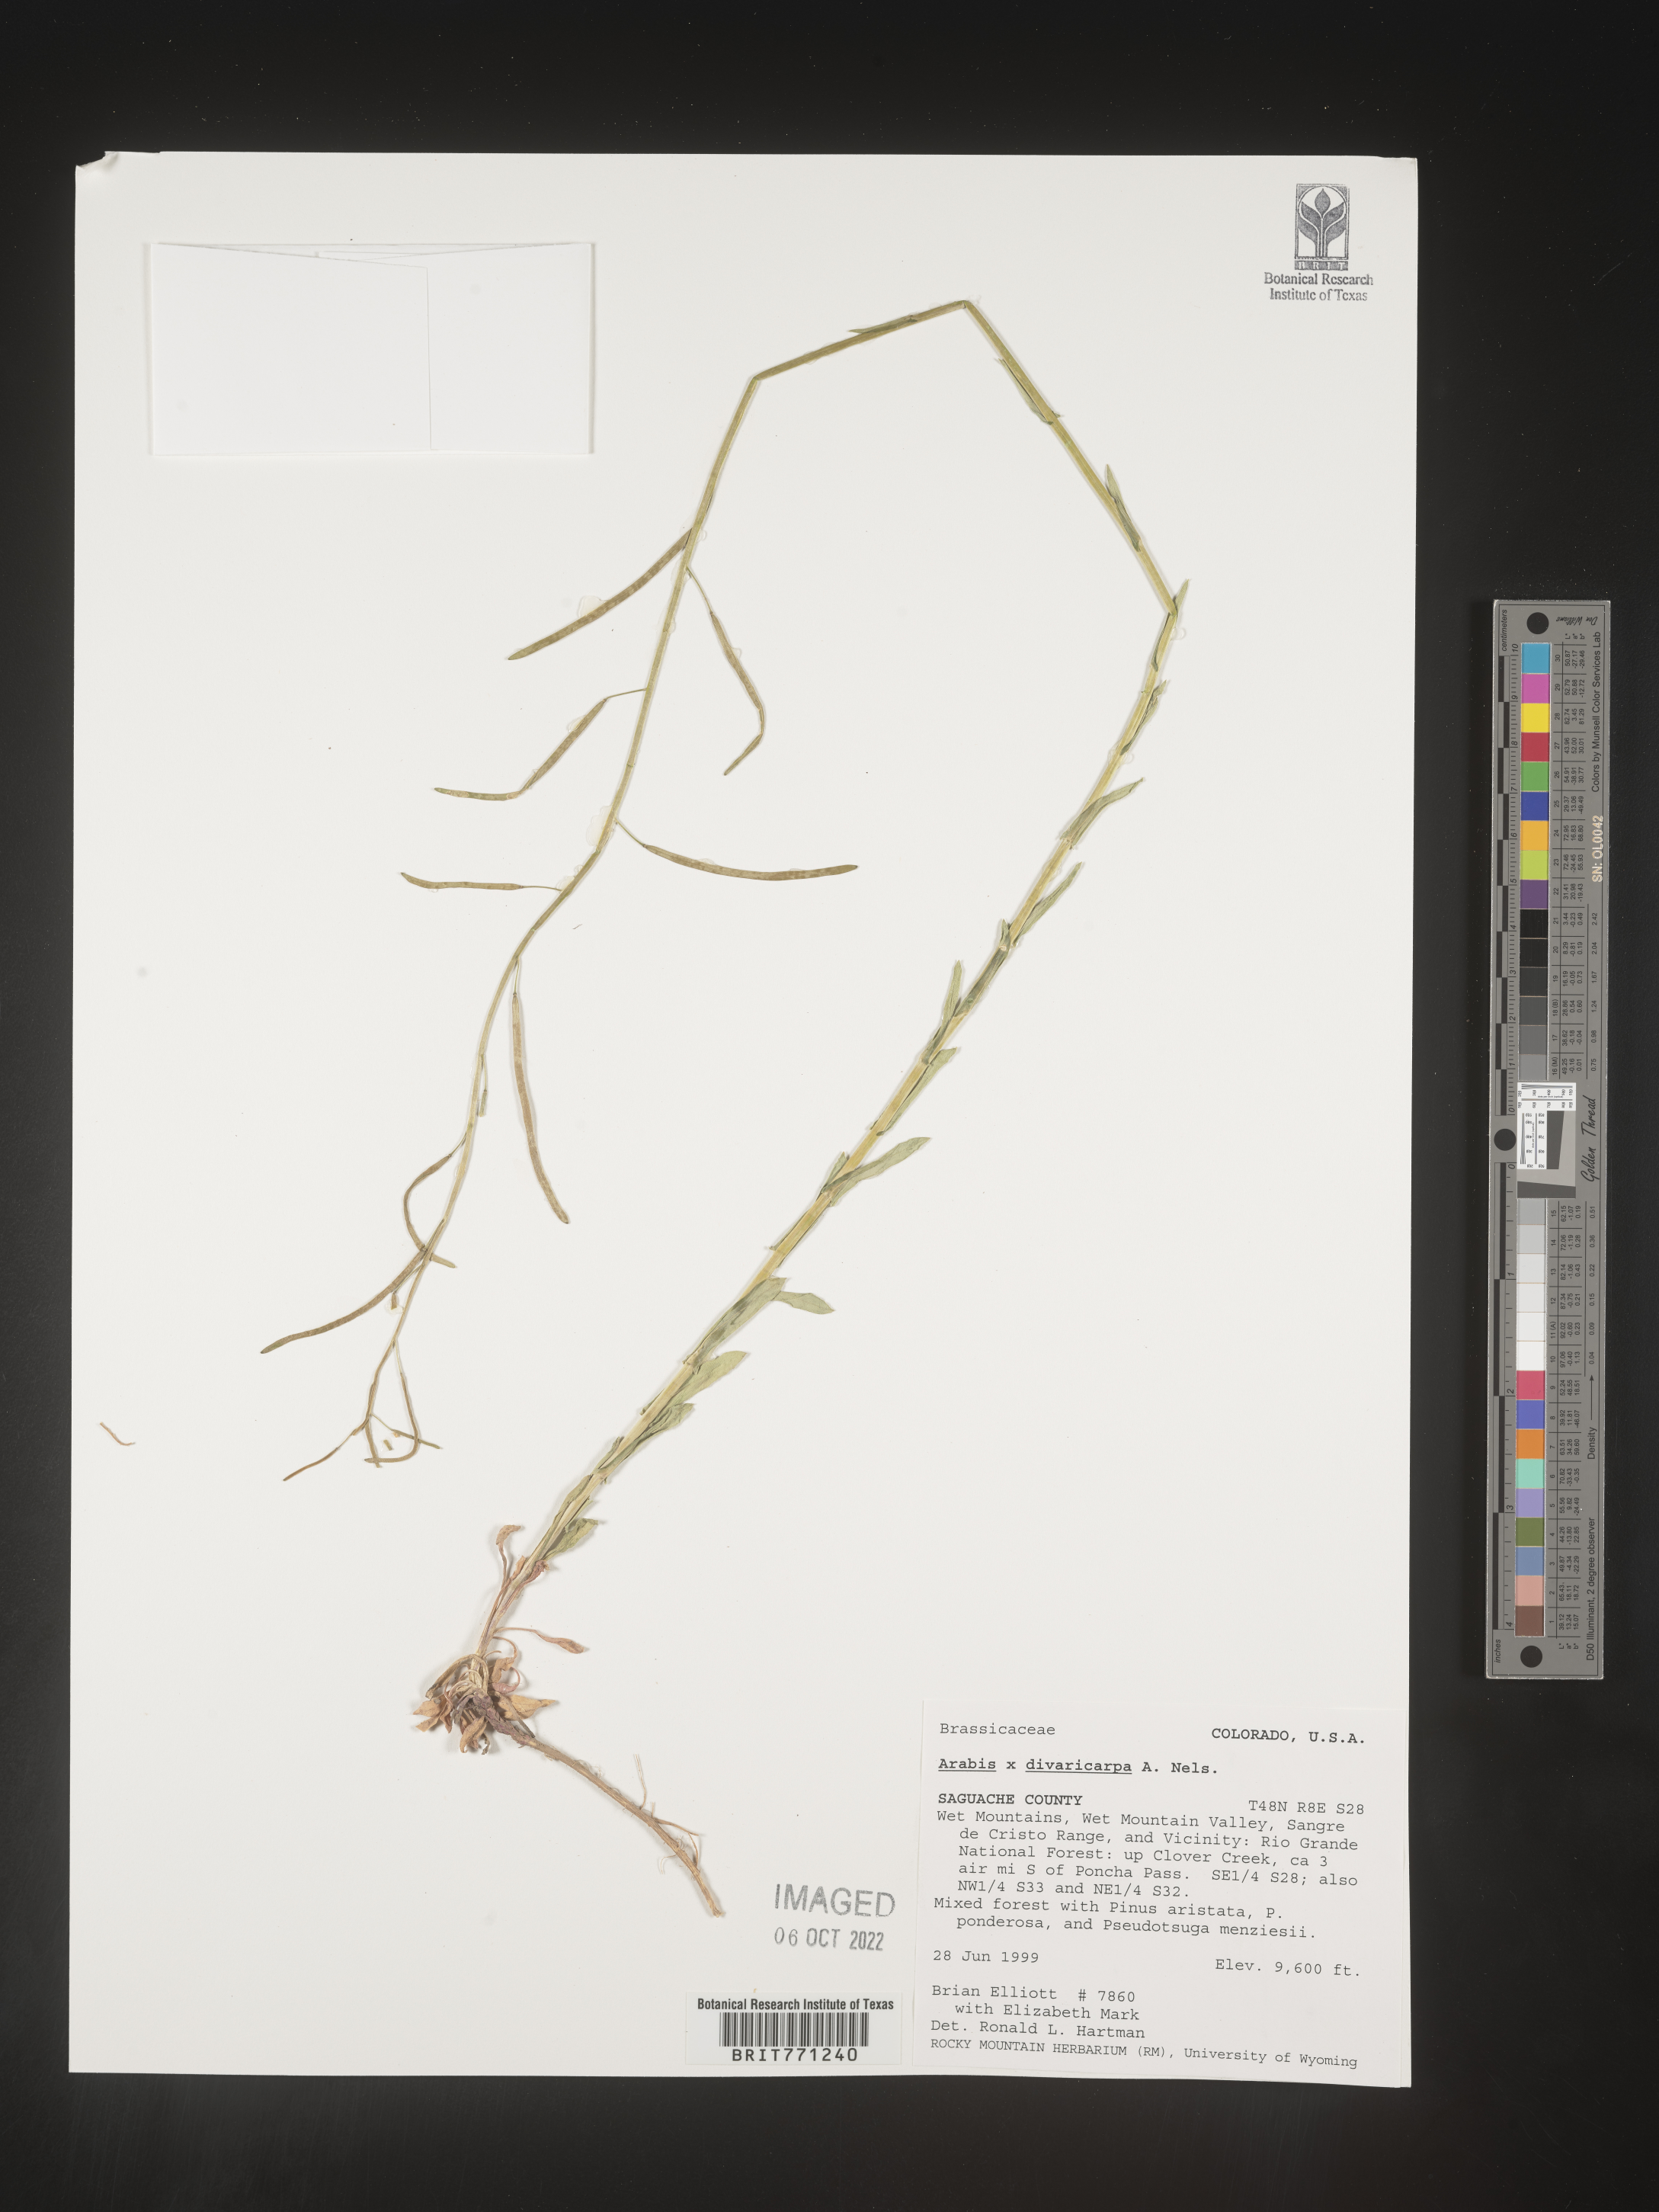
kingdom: Plantae
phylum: Tracheophyta
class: Magnoliopsida
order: Brassicales
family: Brassicaceae
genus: Boechera
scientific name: Boechera divaricarpa
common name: Divaricate rockcress
